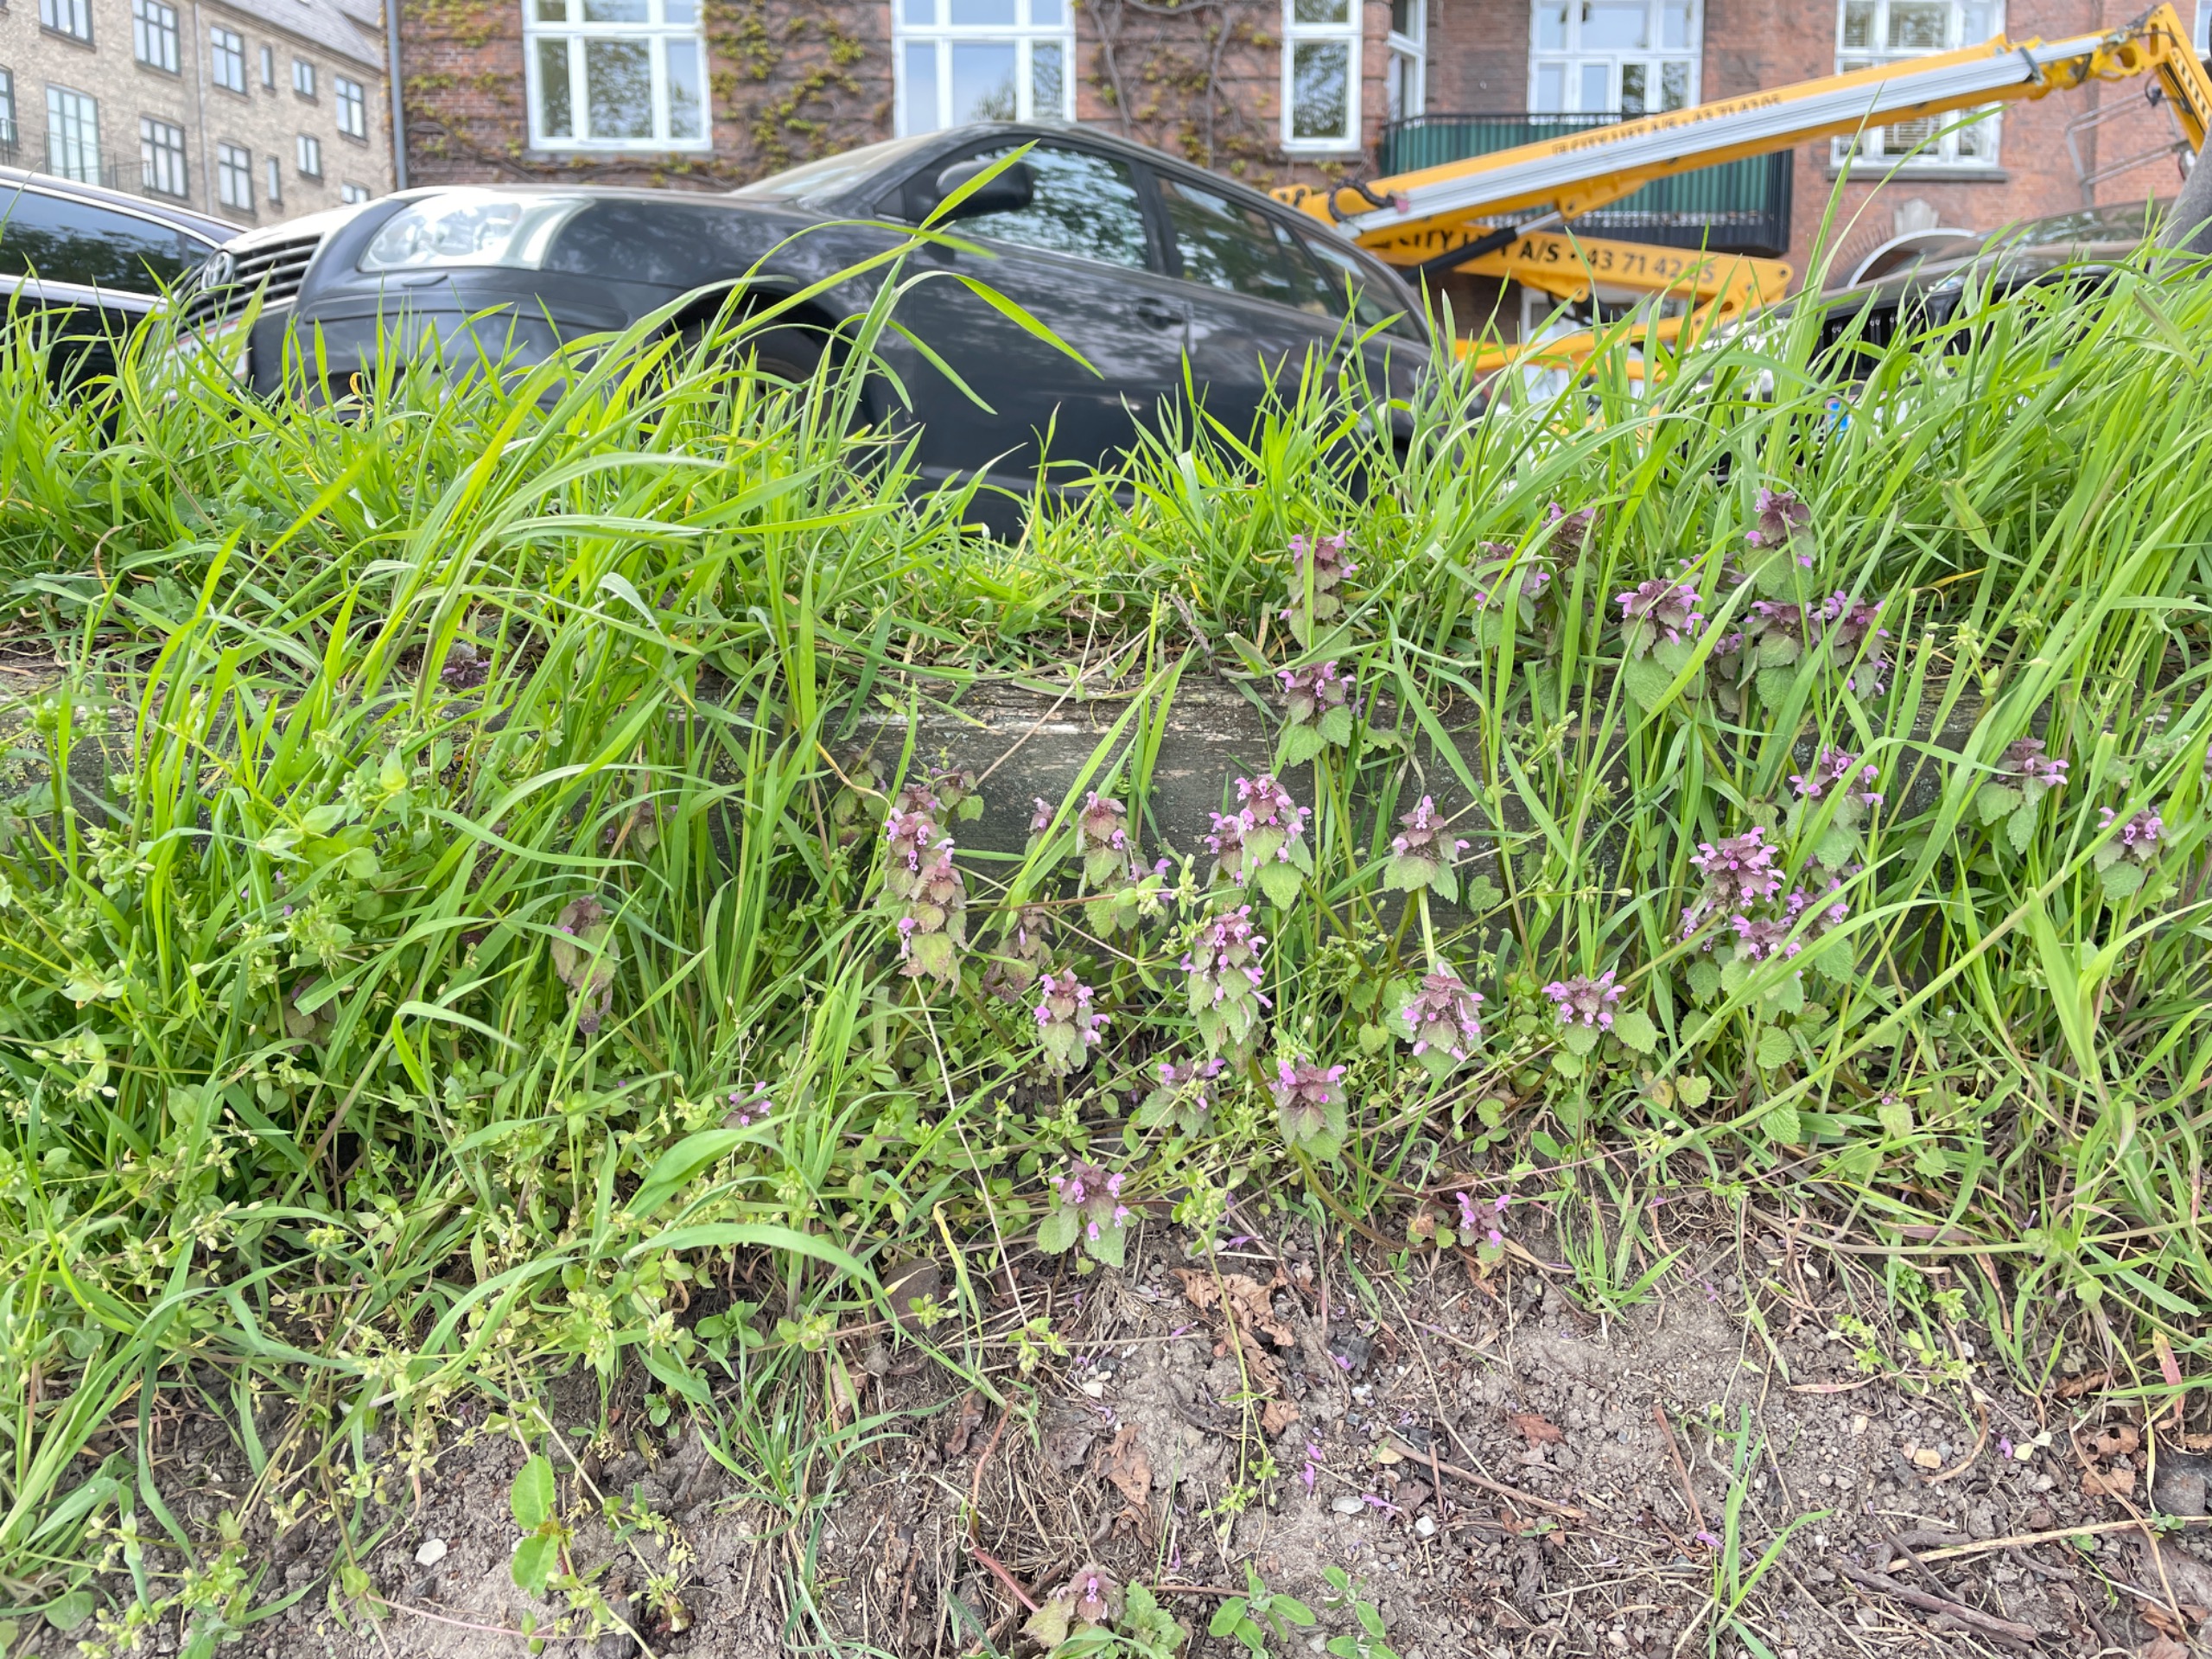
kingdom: Plantae
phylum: Tracheophyta
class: Magnoliopsida
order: Lamiales
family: Lamiaceae
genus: Lamium
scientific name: Lamium purpureum
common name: Rød tvetand
